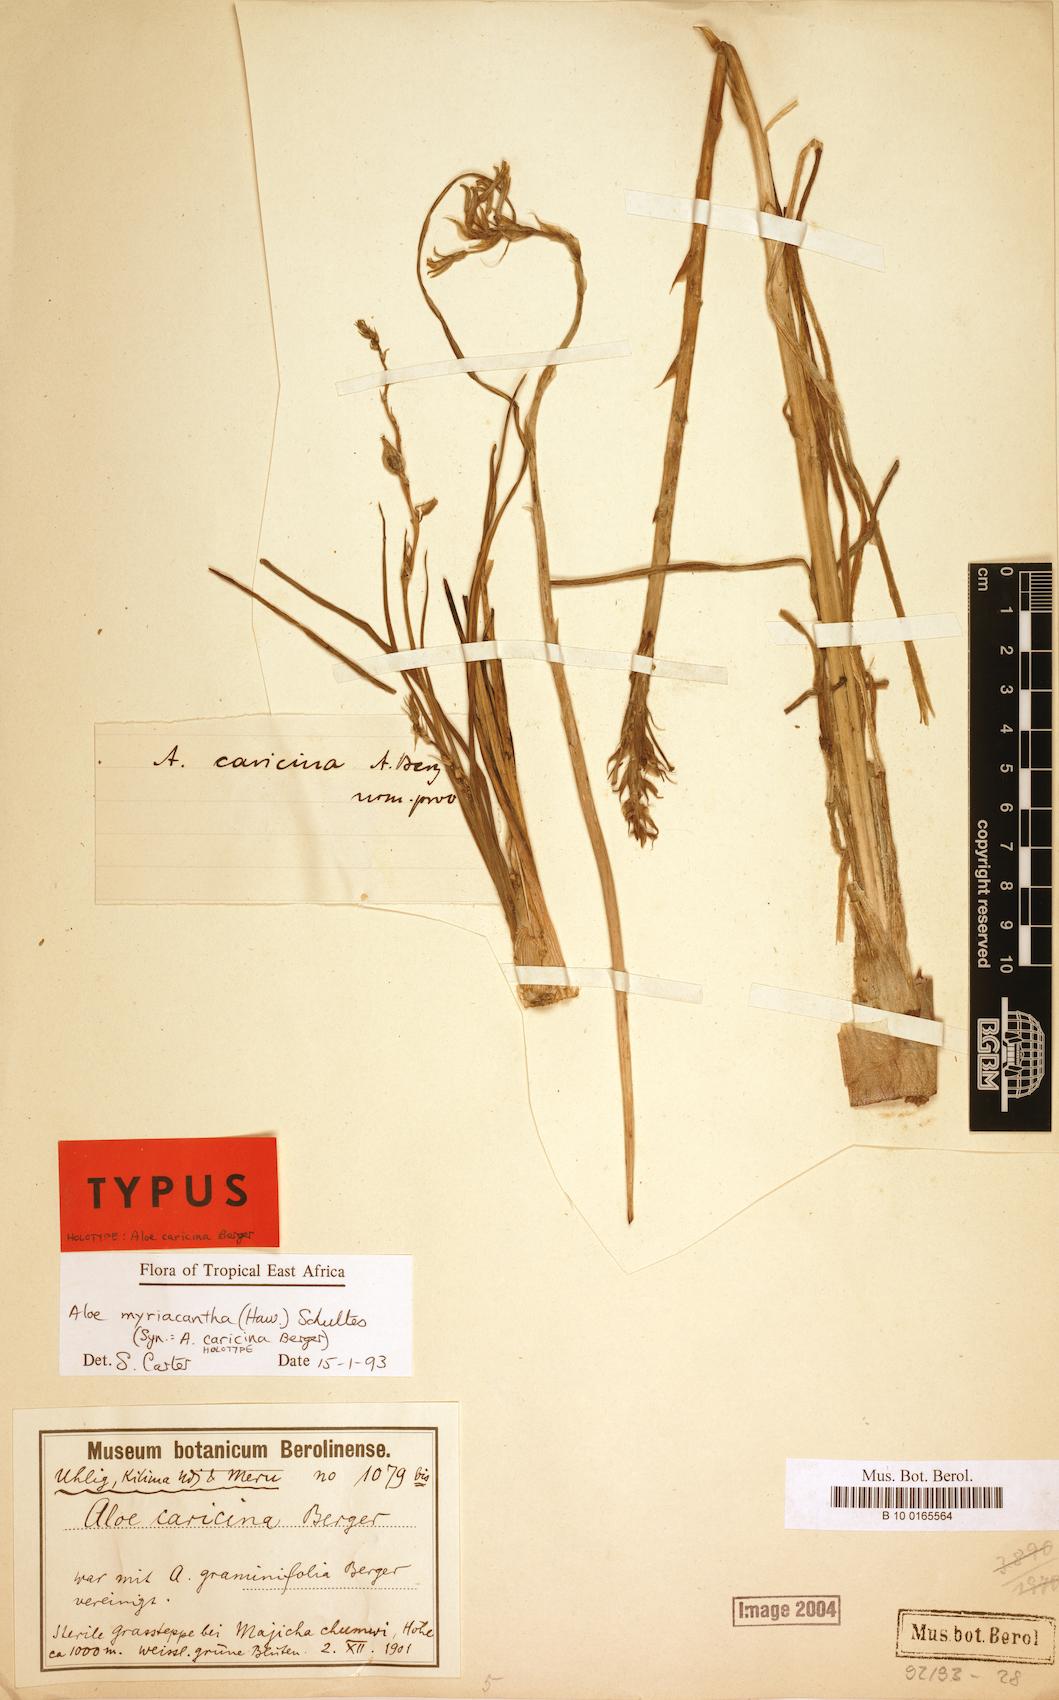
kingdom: Plantae
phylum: Tracheophyta
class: Liliopsida
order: Asparagales
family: Asphodelaceae
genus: Aloe
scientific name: Aloe myriacantha
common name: Grass aloe
